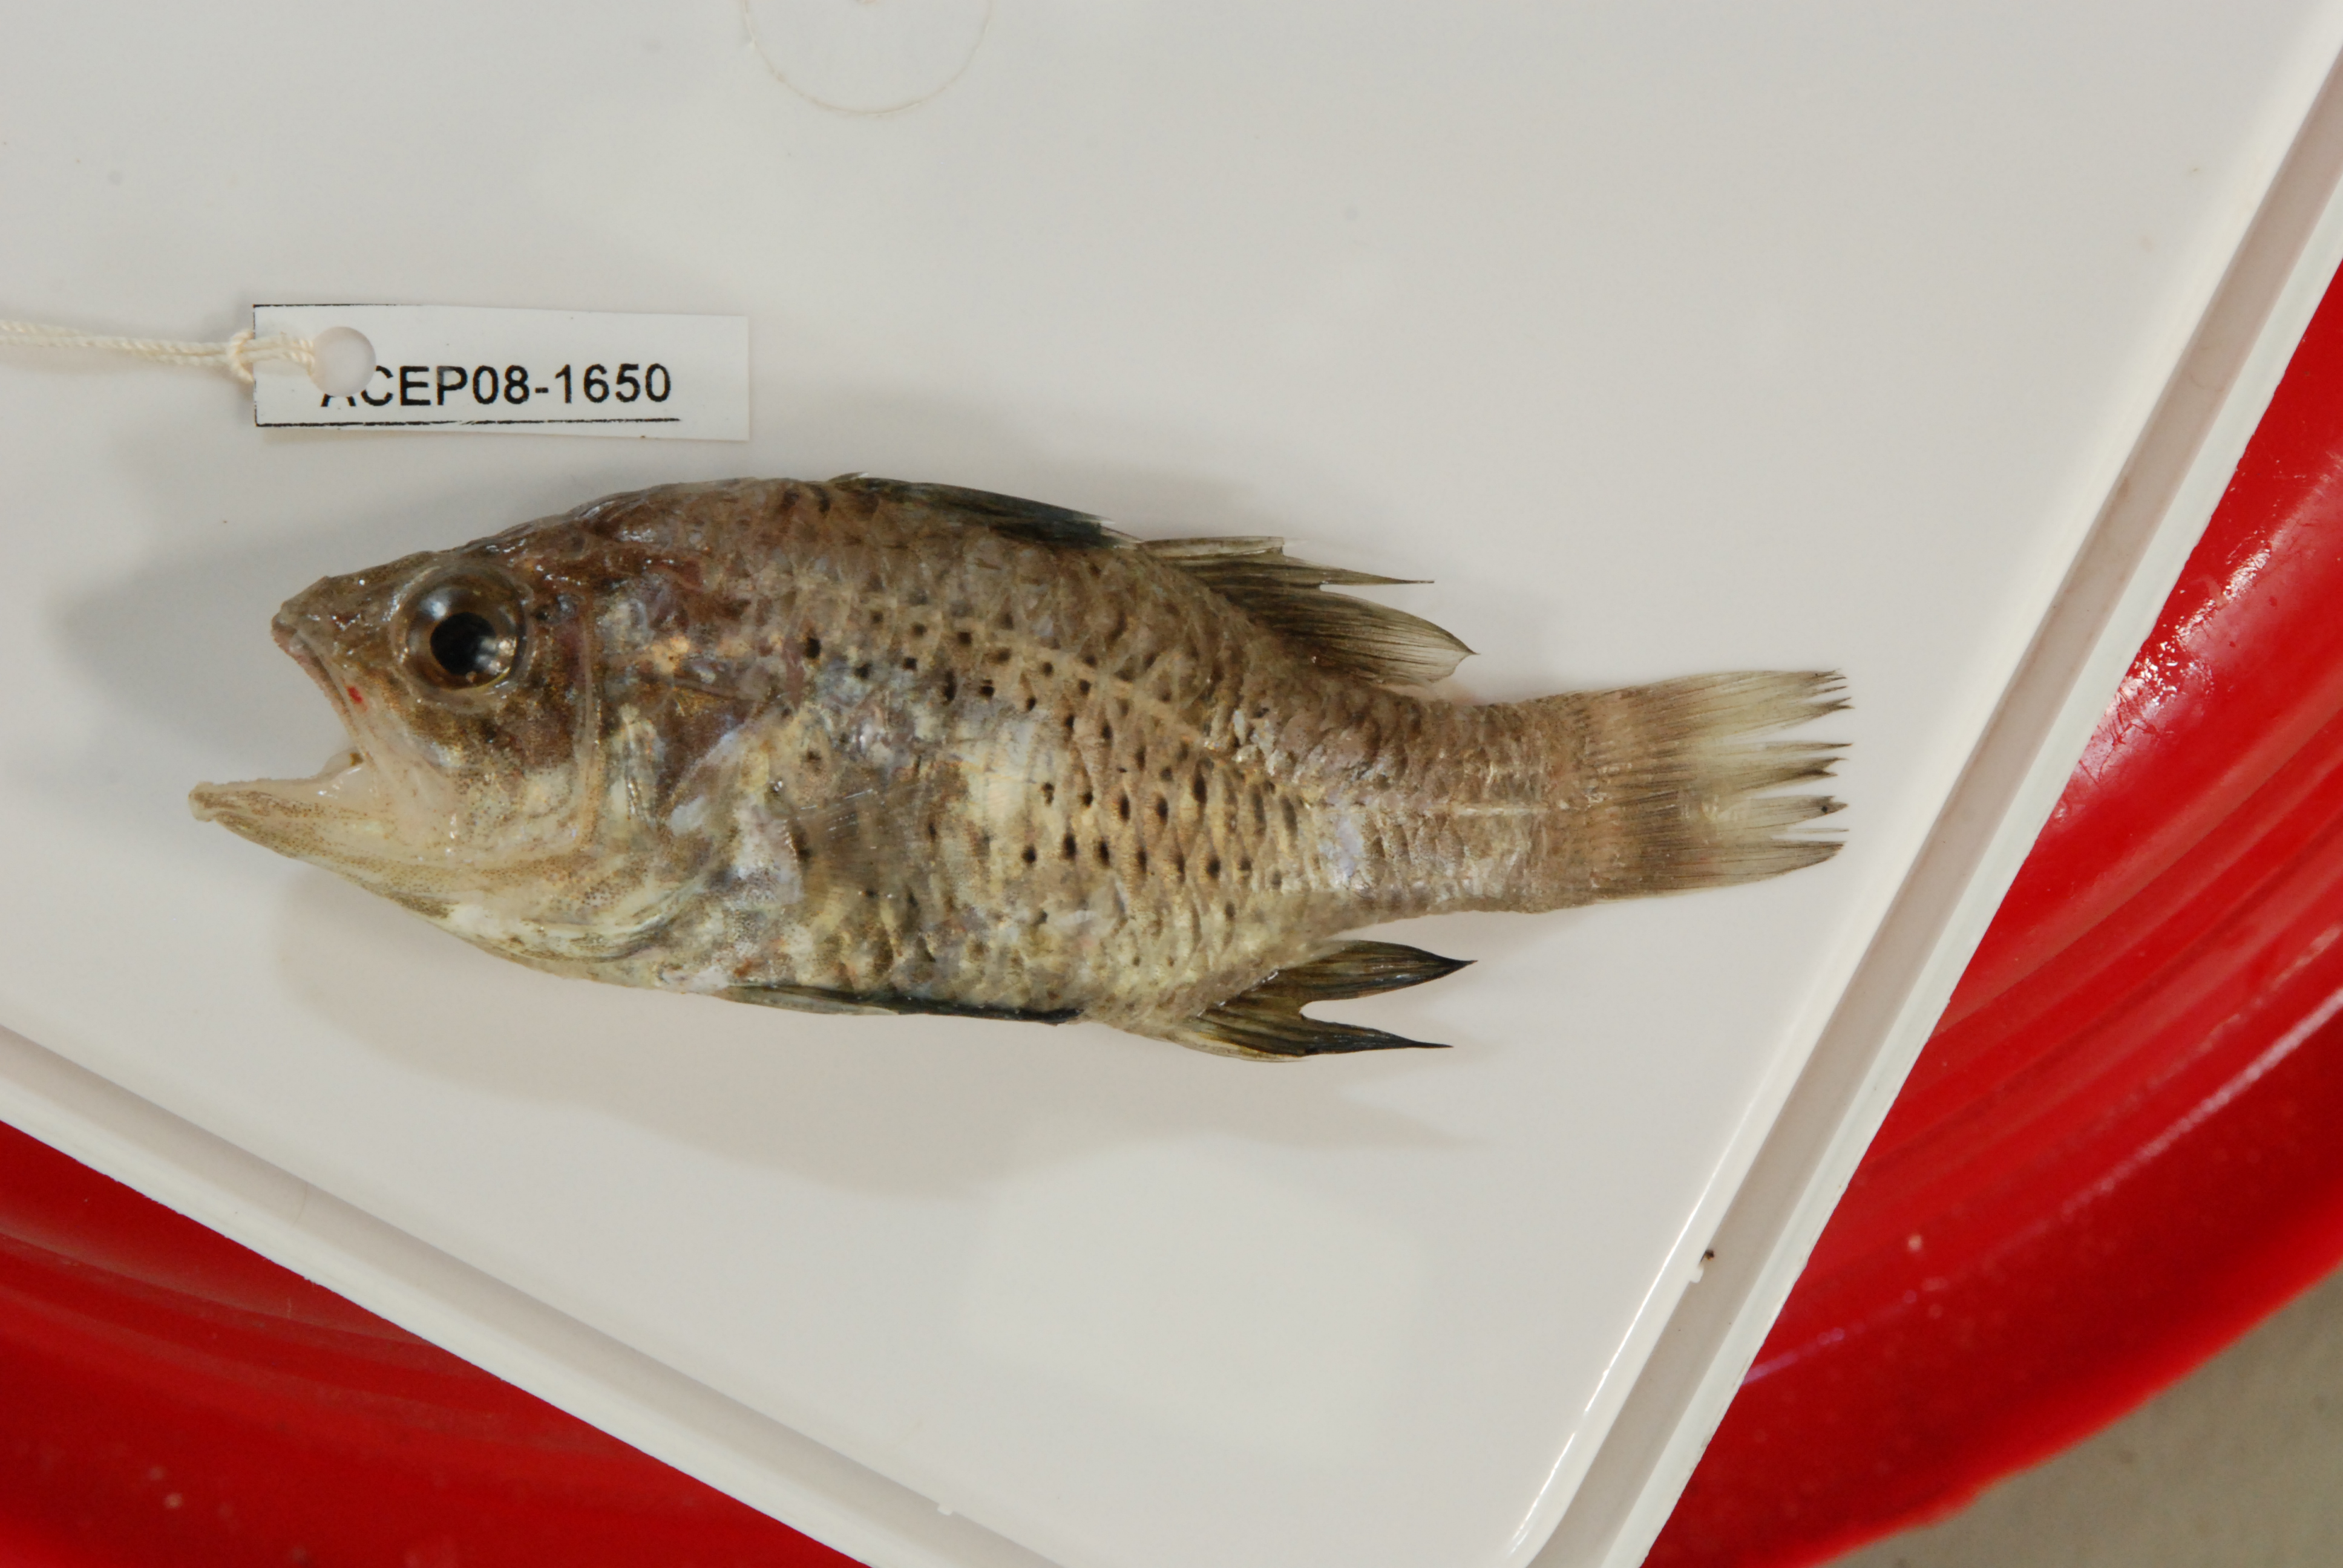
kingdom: Animalia
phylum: Chordata
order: Perciformes
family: Apogonidae
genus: Apogonichthyoides
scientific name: Apogonichthyoides regani
